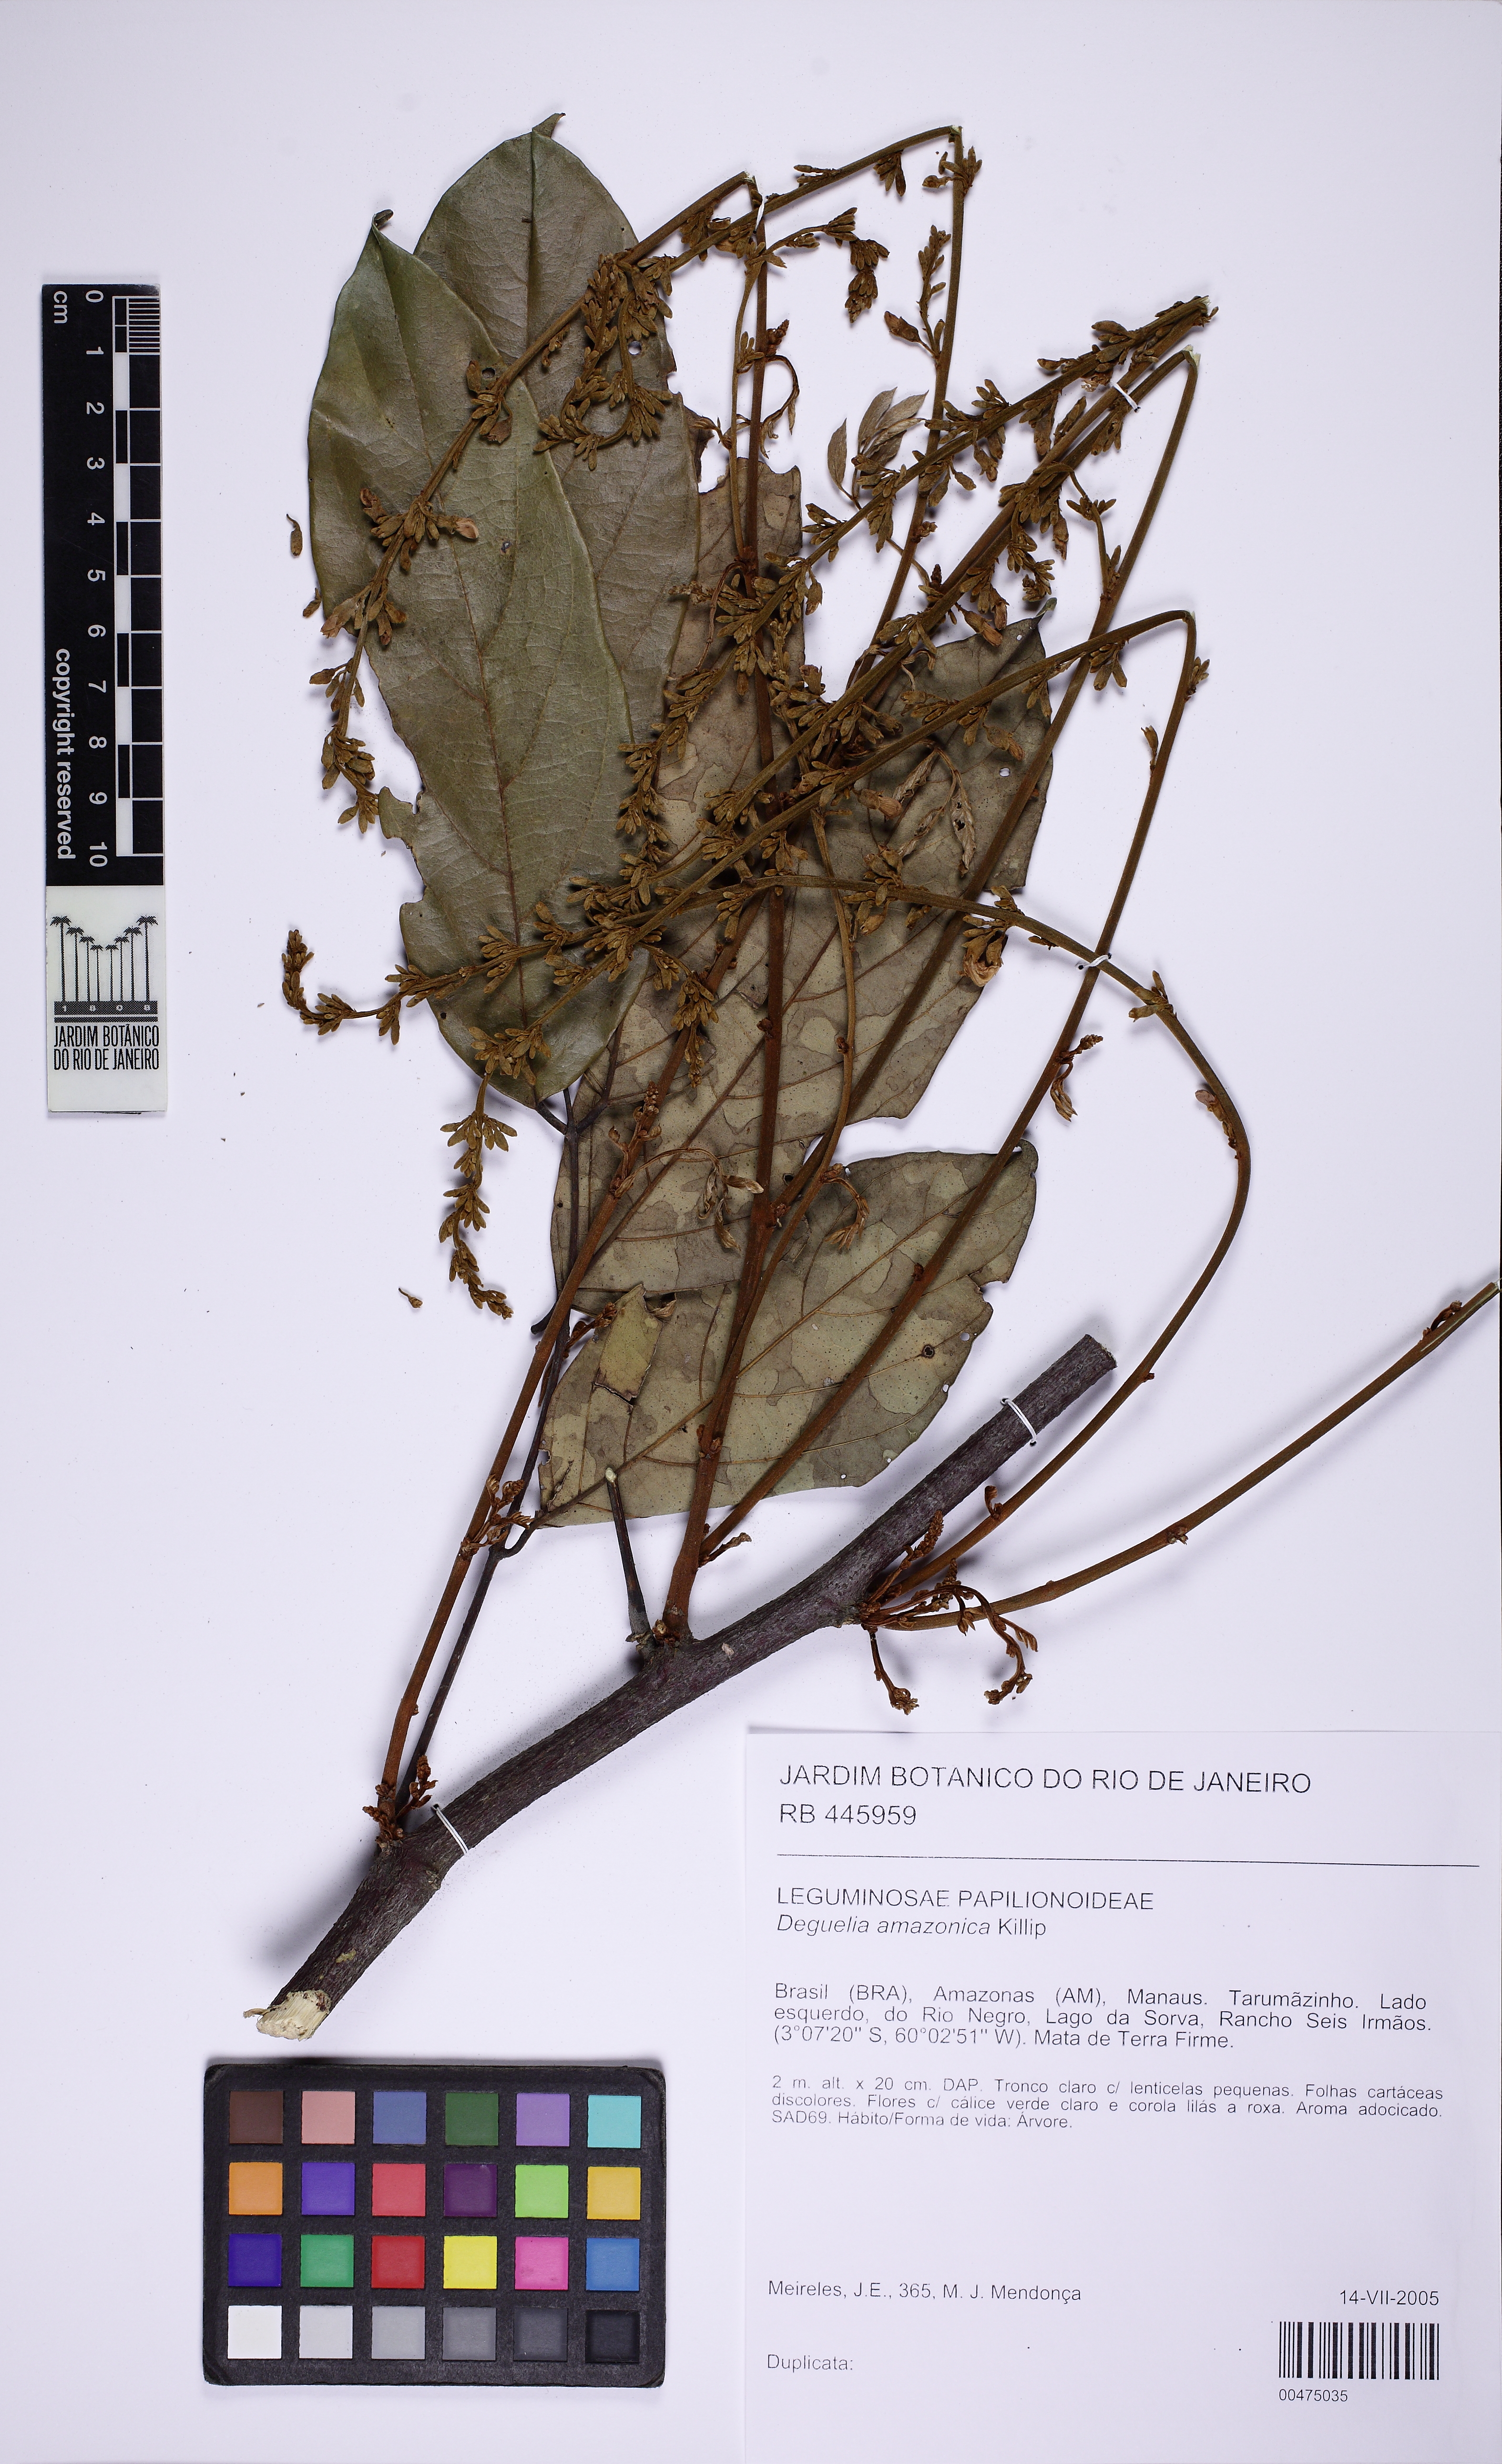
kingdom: Plantae
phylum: Tracheophyta
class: Magnoliopsida
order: Fabales
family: Fabaceae
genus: Deguelia
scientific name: Deguelia amazonica
